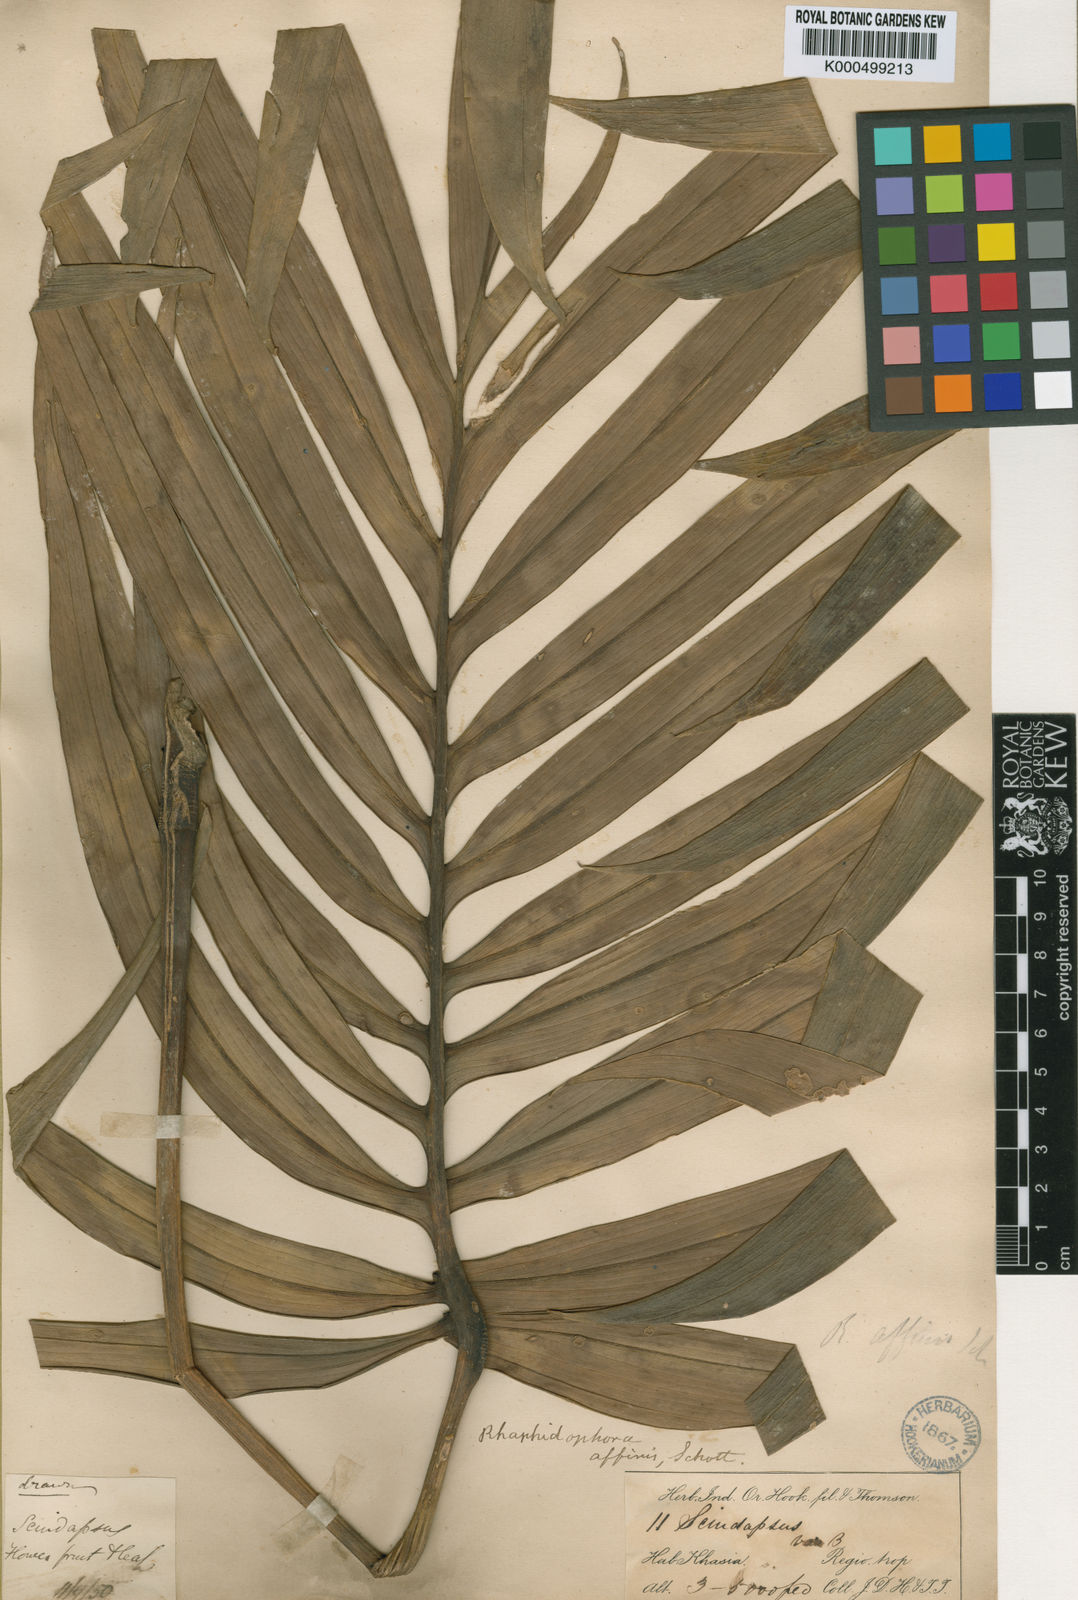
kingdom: Plantae
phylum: Tracheophyta
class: Liliopsida
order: Alismatales
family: Araceae
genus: Rhaphidophora
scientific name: Rhaphidophora decursiva
